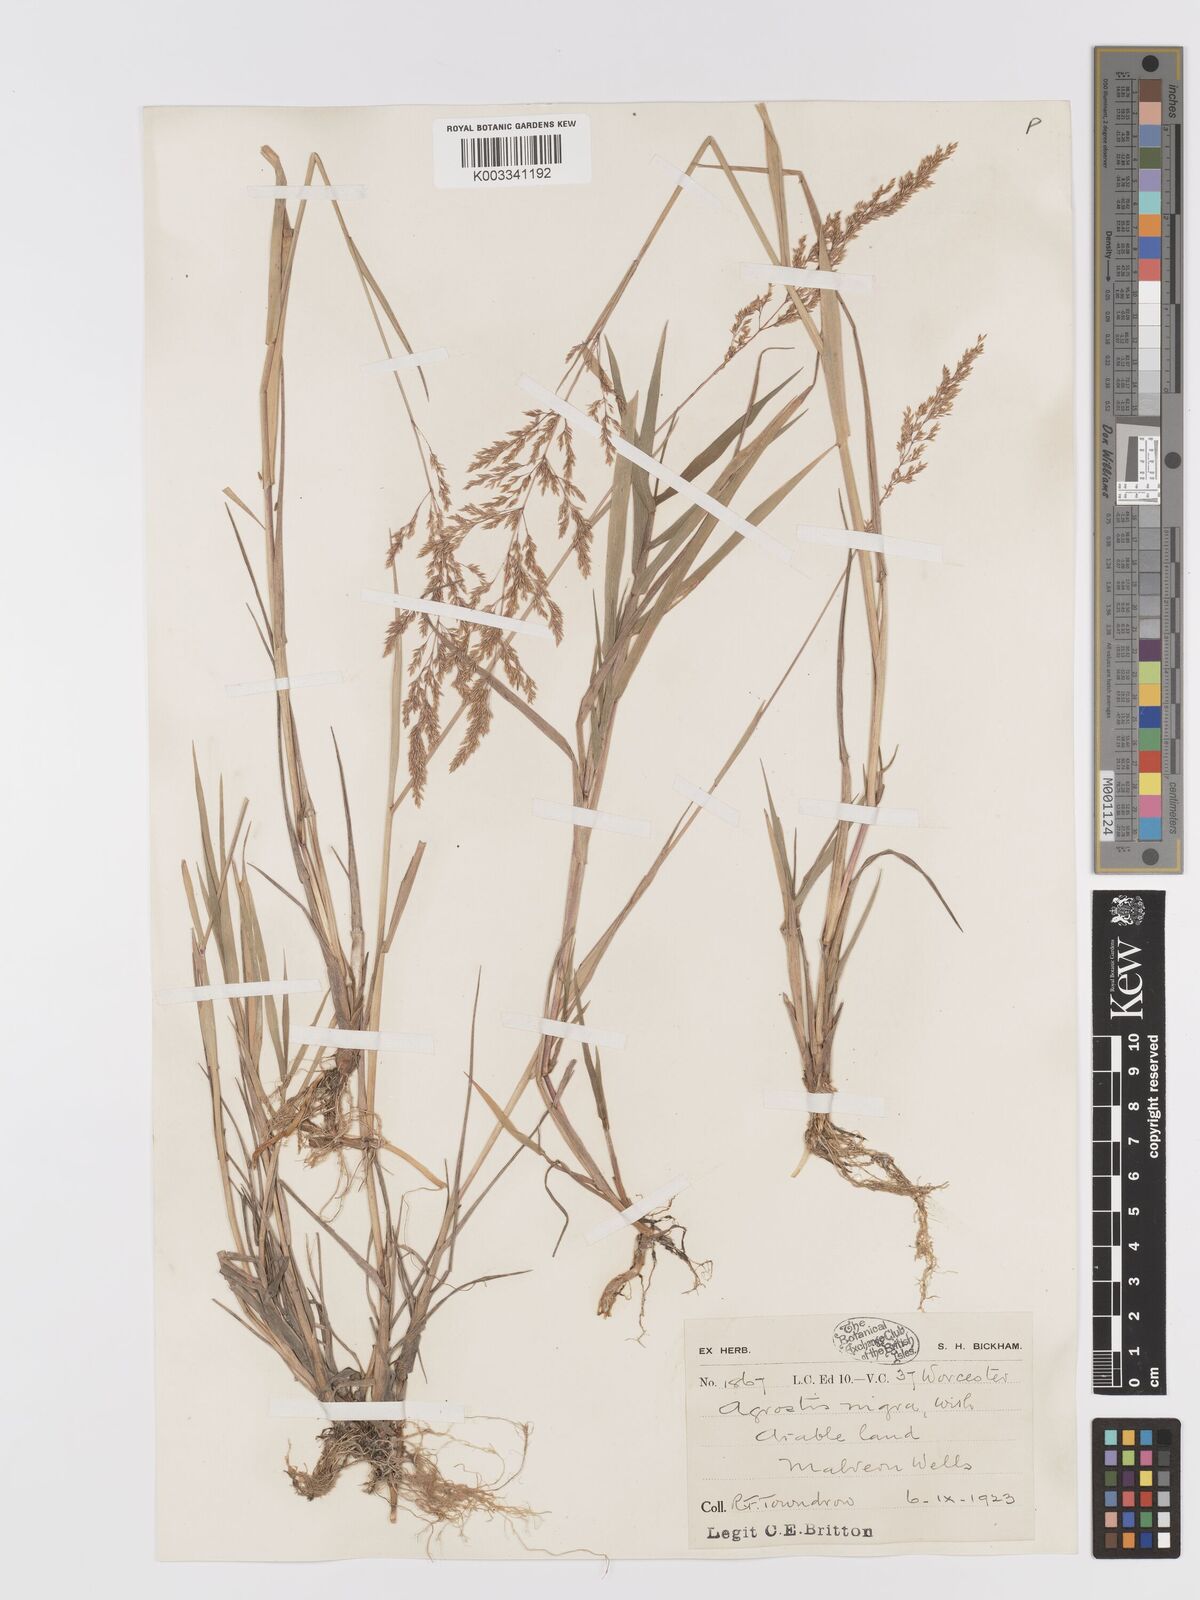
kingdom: Plantae
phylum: Tracheophyta
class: Liliopsida
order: Poales
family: Poaceae
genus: Agrostis
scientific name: Agrostis gigantea
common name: Black bent
